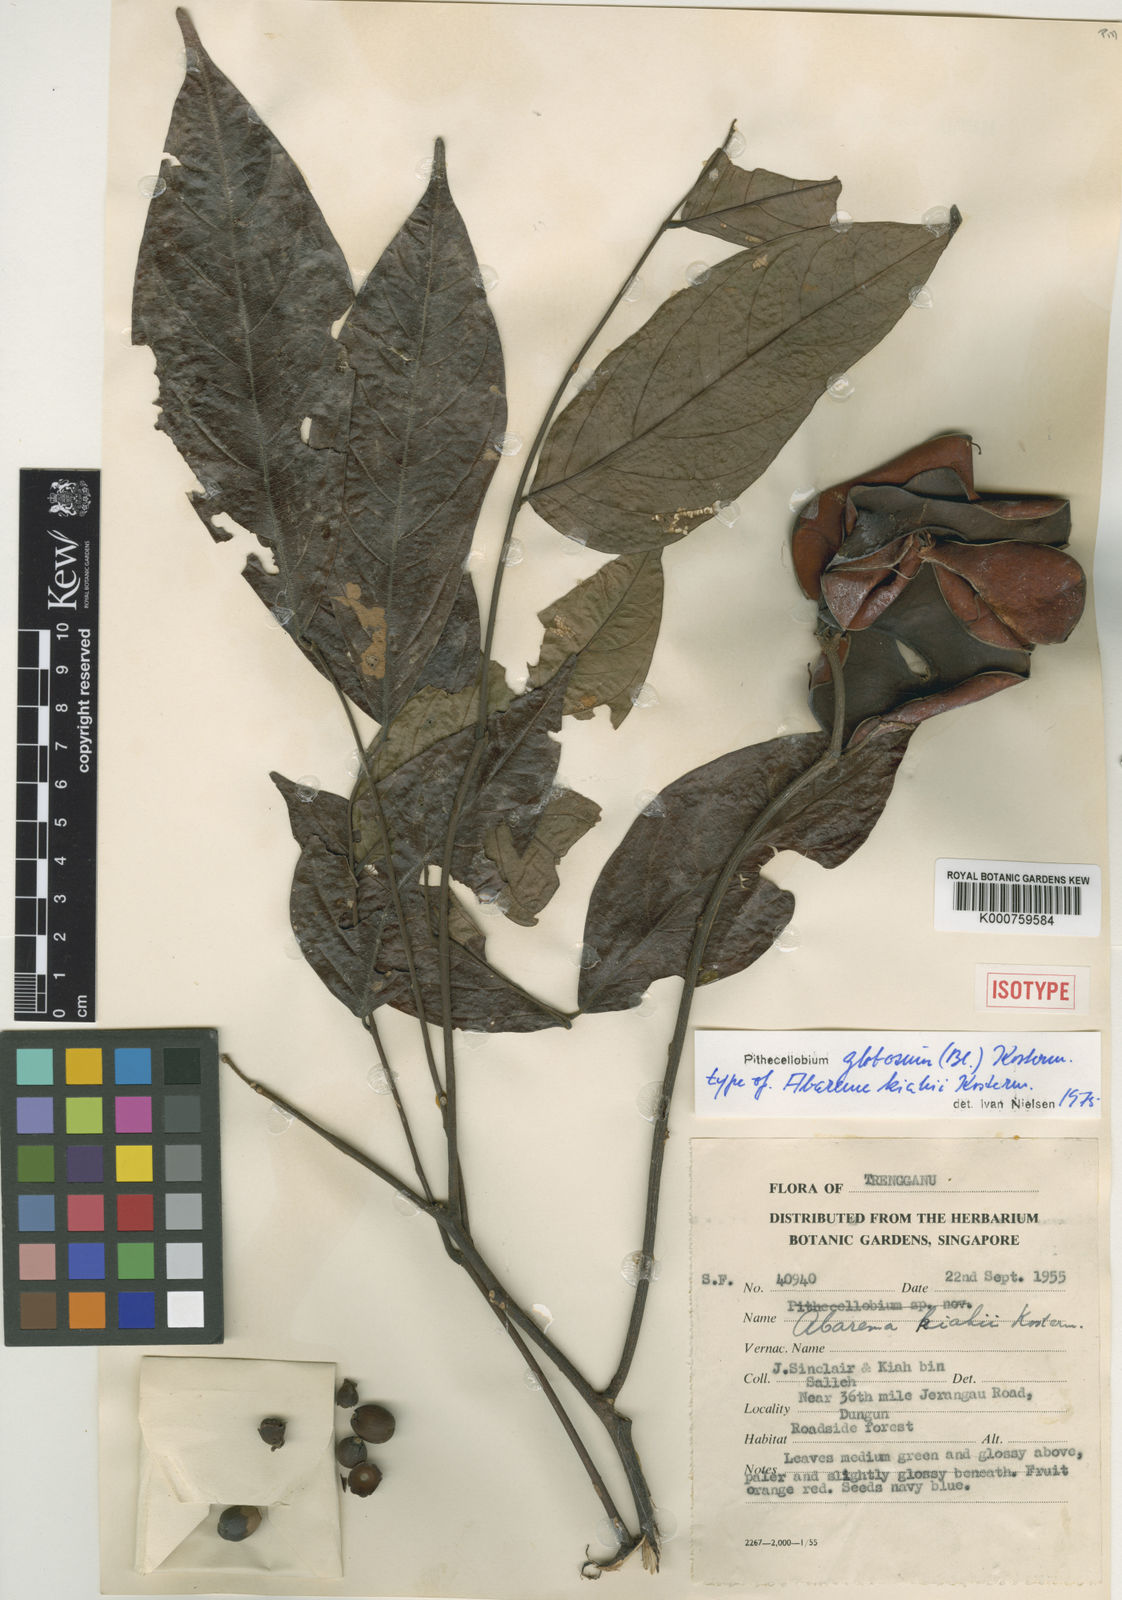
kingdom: Plantae
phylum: Tracheophyta
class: Magnoliopsida
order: Fabales
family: Fabaceae
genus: Archidendron
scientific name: Archidendron globosum
